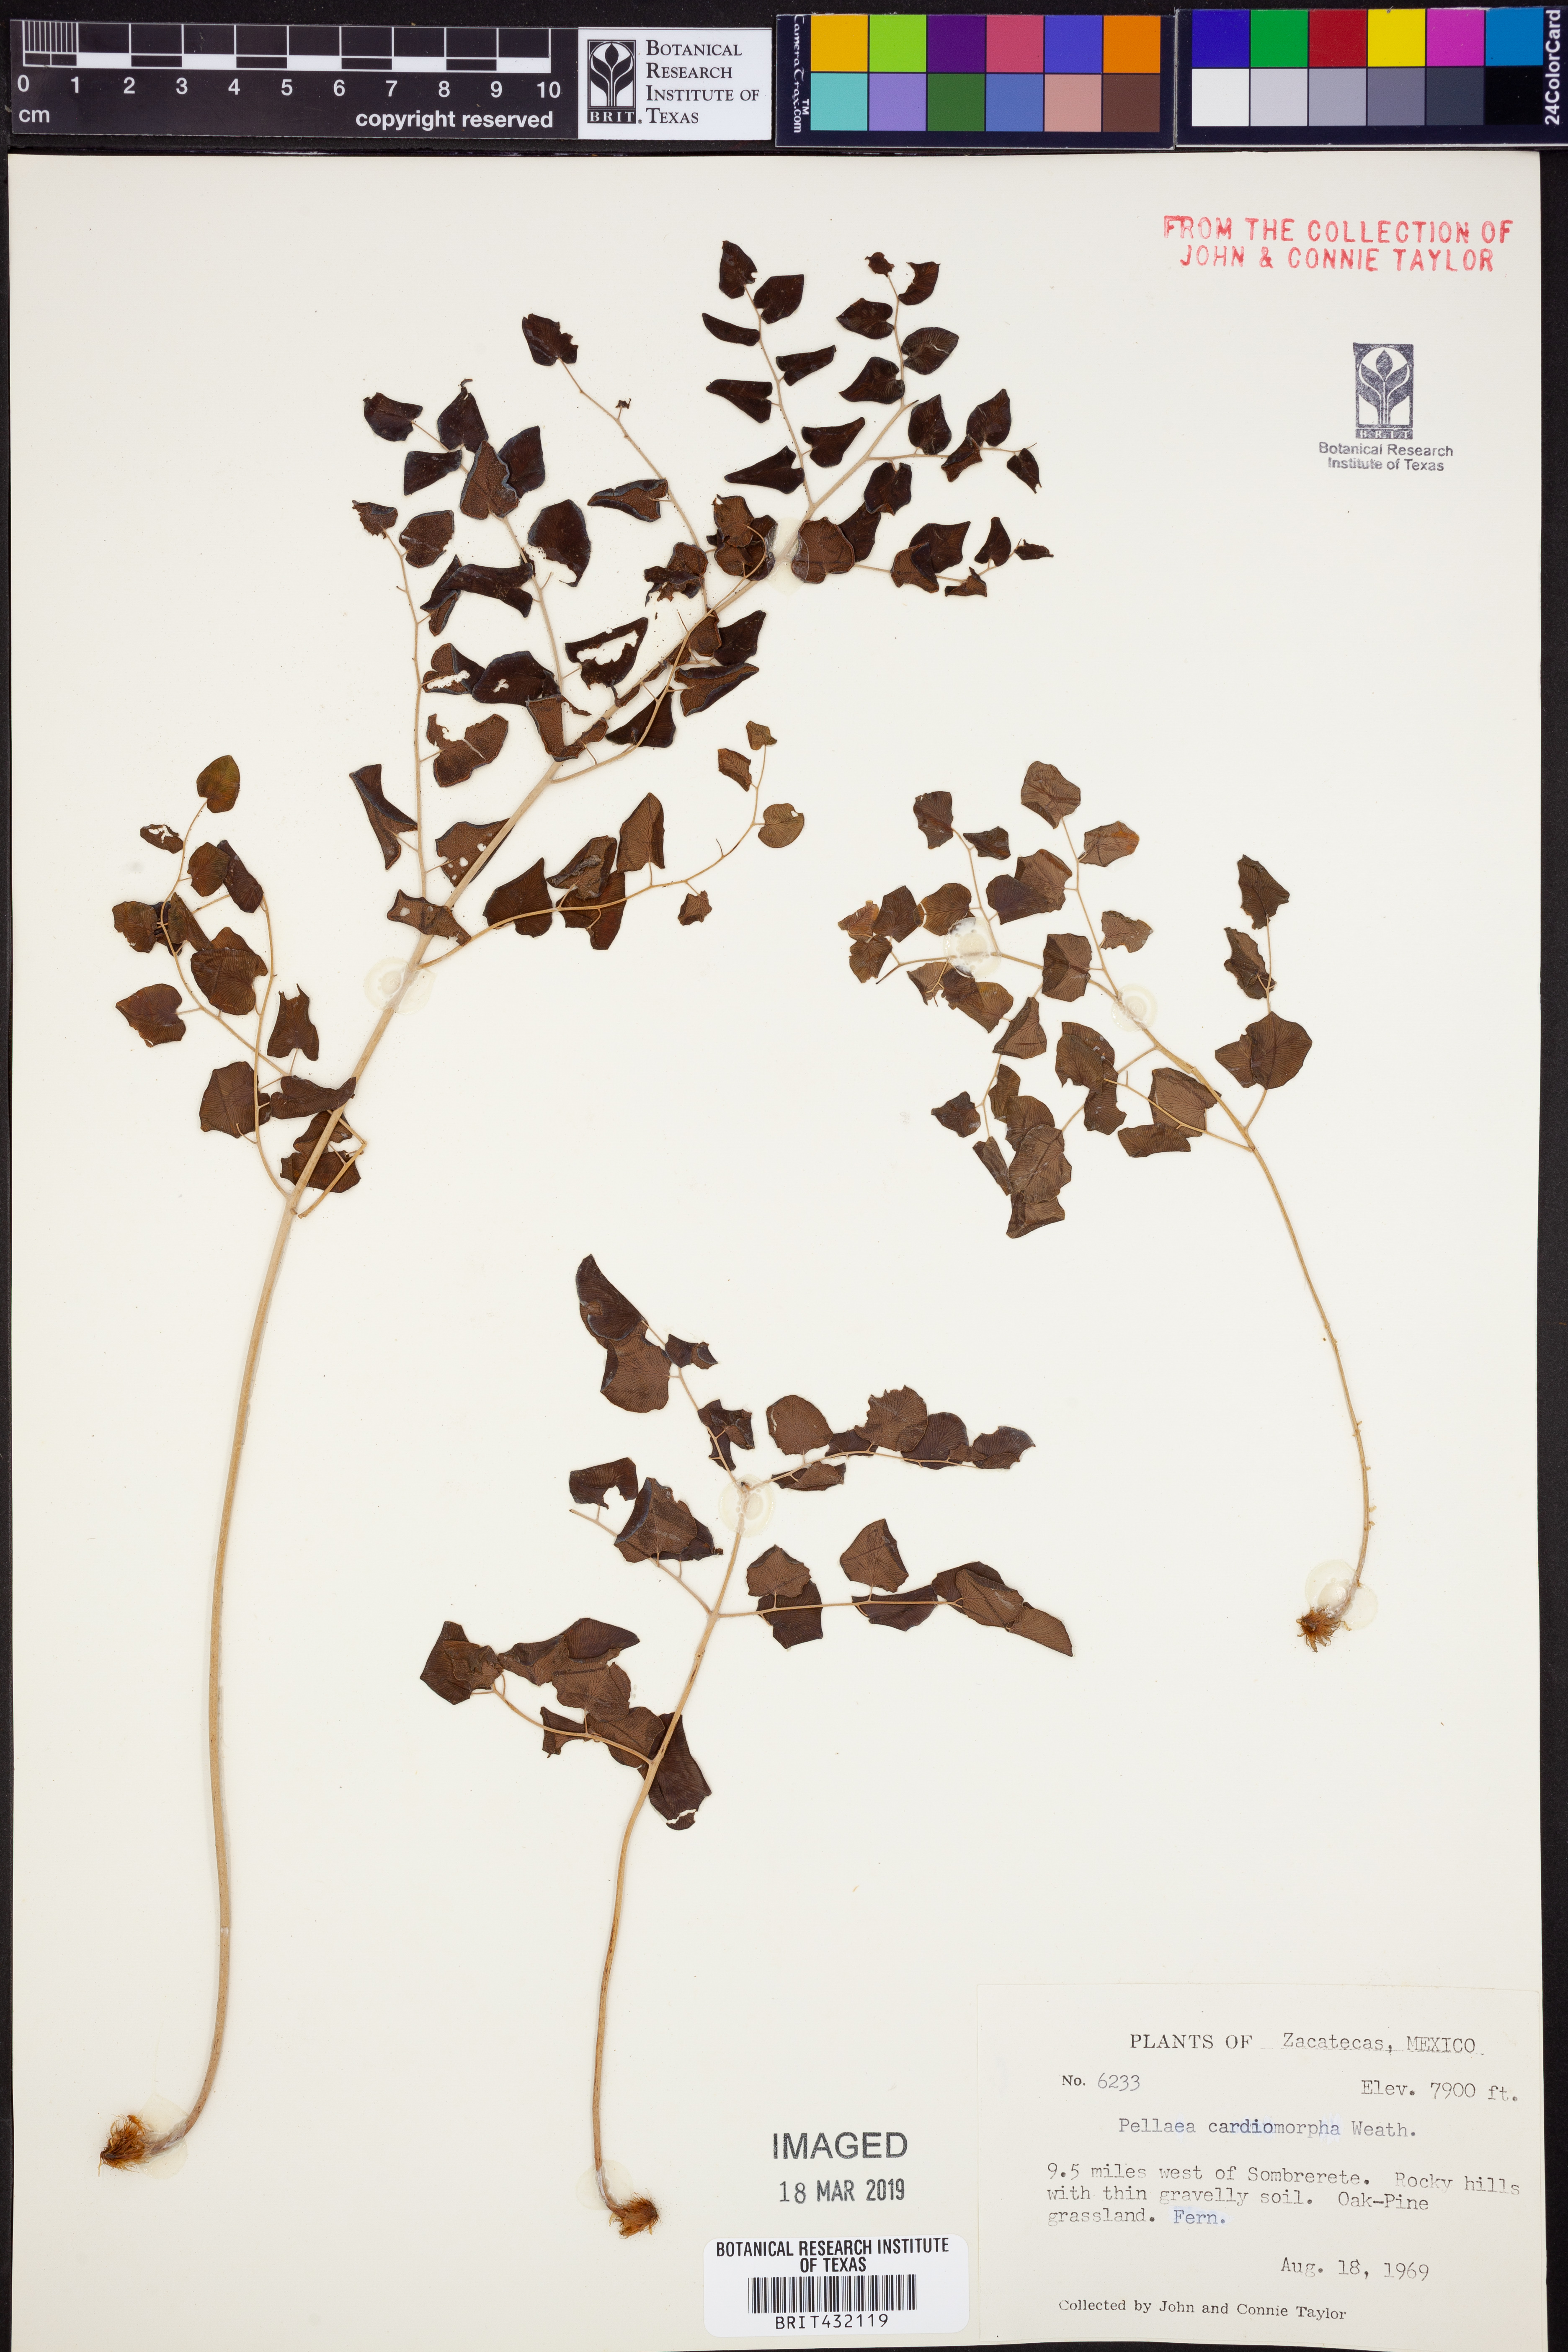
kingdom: Plantae
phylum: Tracheophyta
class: Polypodiopsida
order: Polypodiales
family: Pteridaceae
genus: Pellaea
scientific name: Pellaea cordifolia
